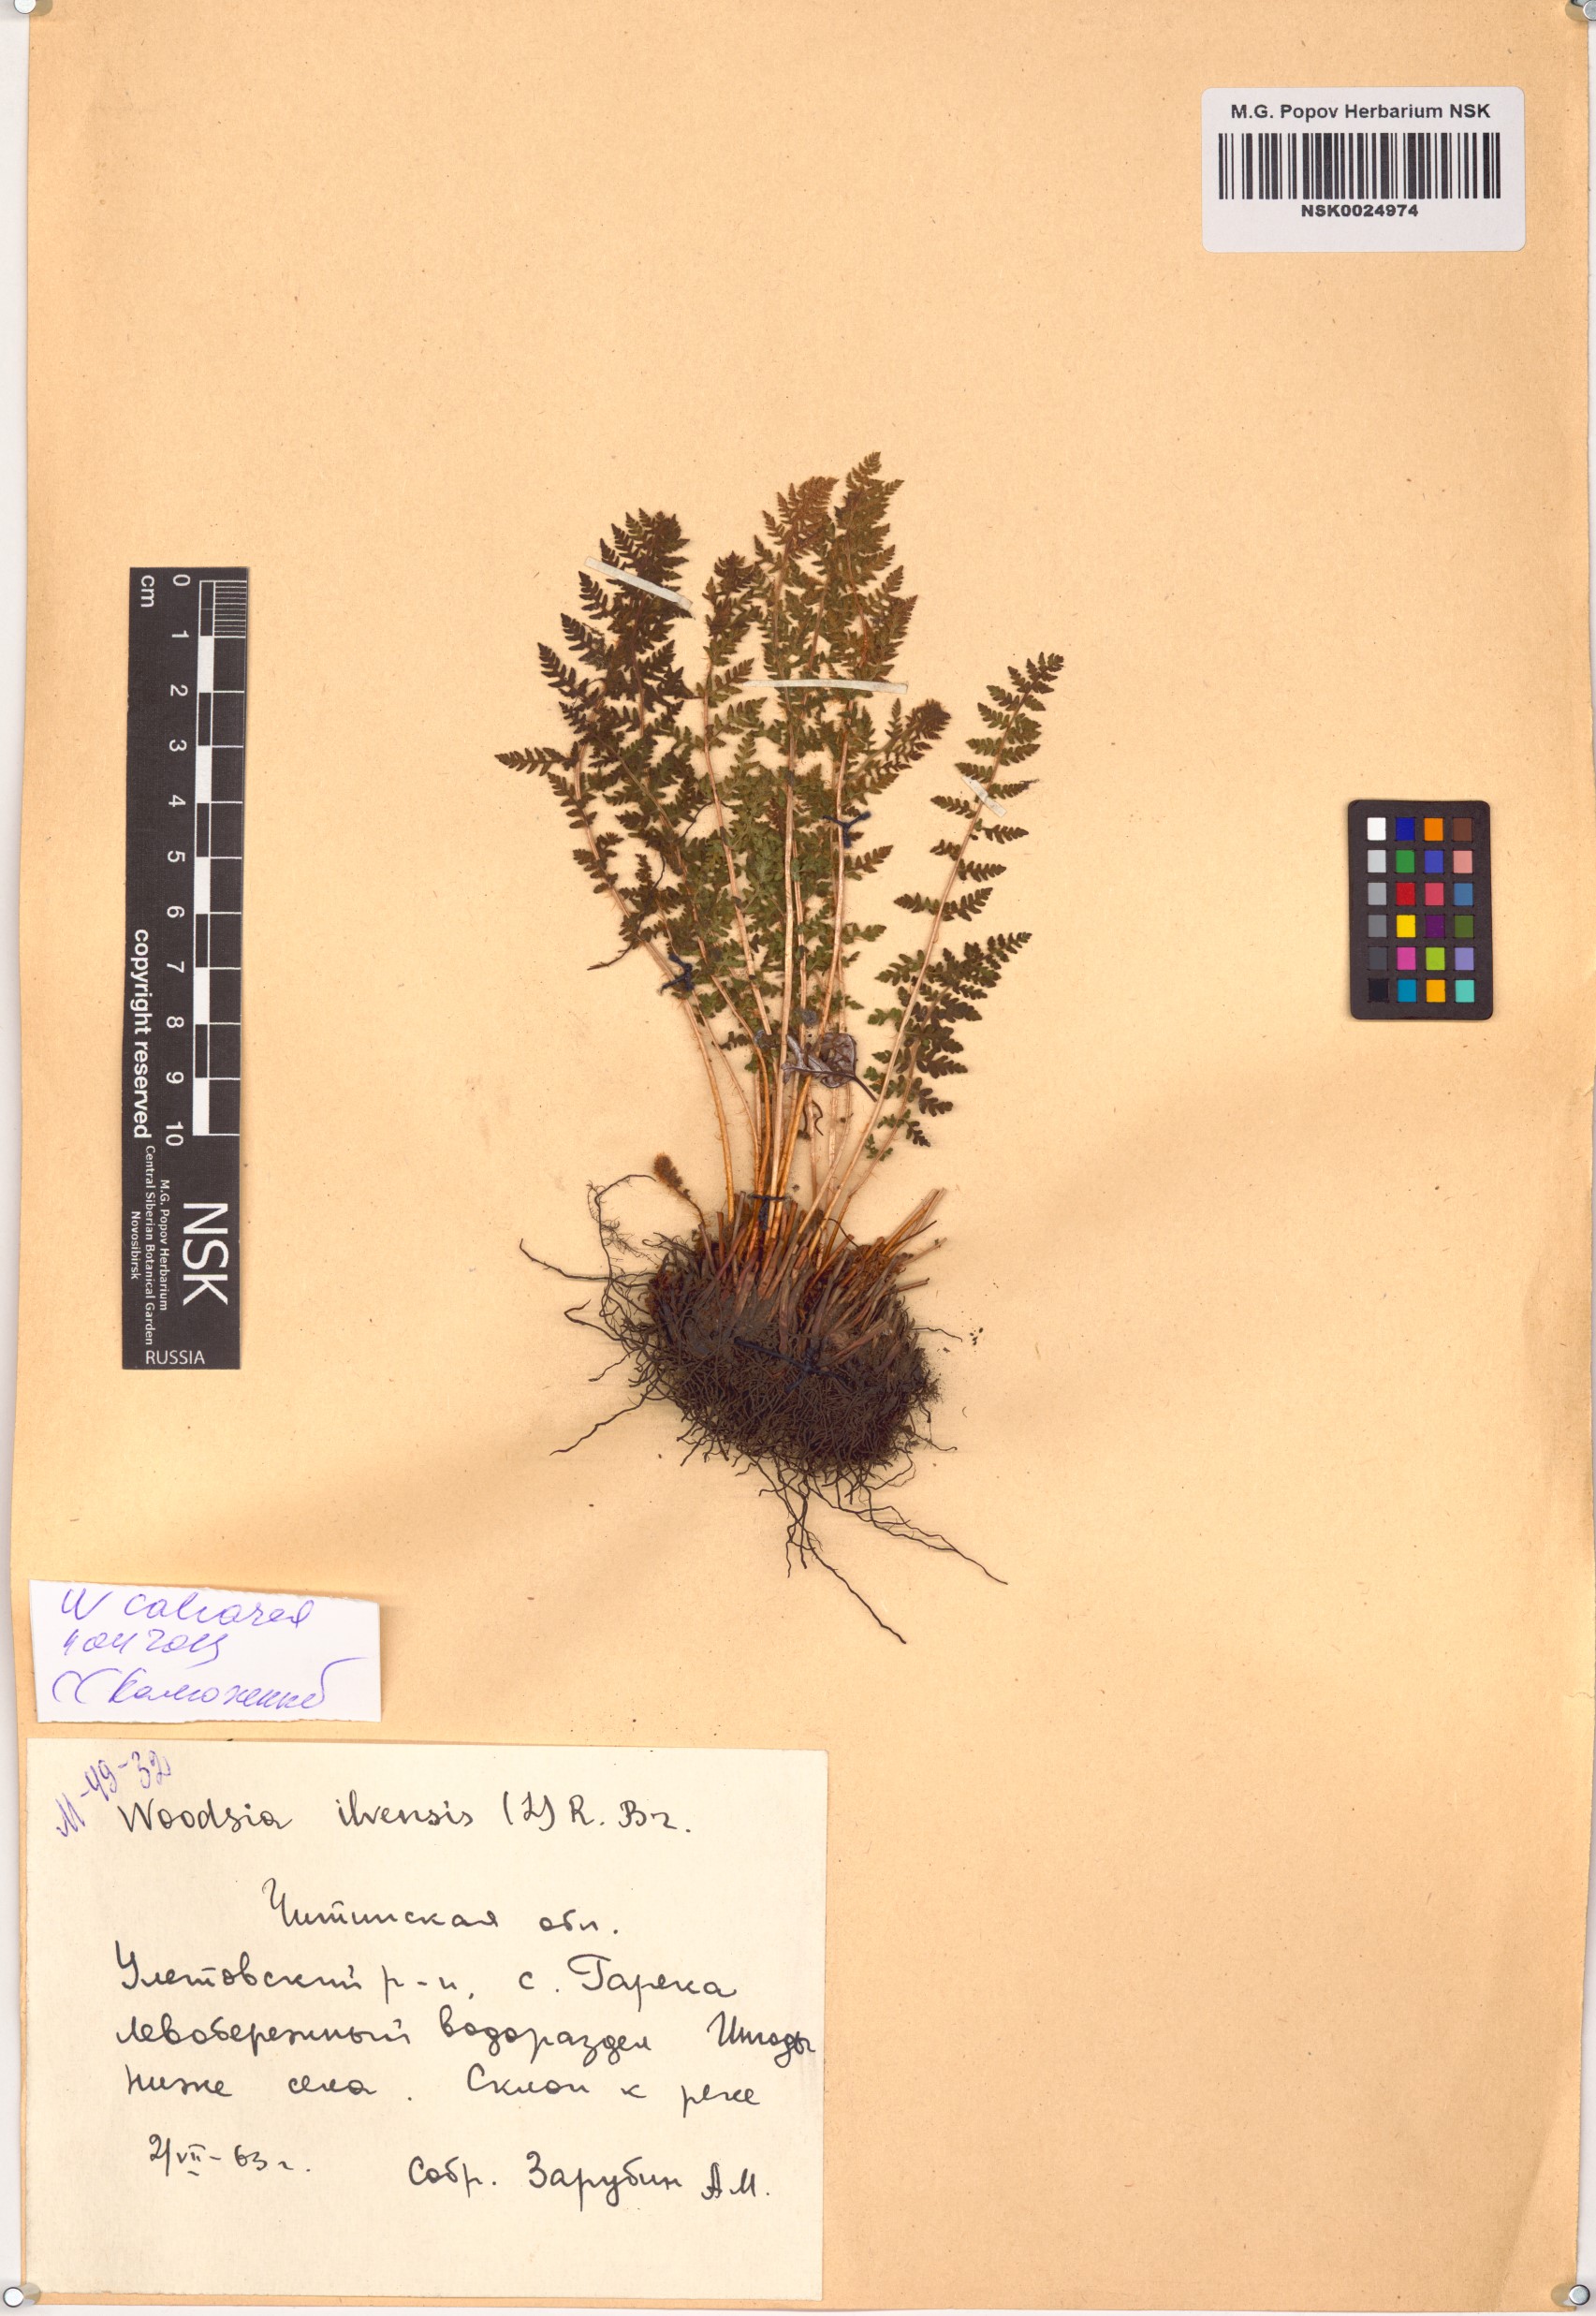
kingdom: Plantae
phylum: Tracheophyta
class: Polypodiopsida
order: Polypodiales
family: Woodsiaceae
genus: Woodsia
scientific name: Woodsia calcarea
